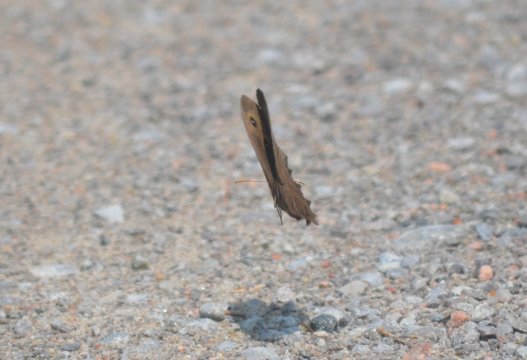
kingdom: Animalia
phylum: Arthropoda
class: Insecta
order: Lepidoptera
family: Nymphalidae
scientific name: Nymphalidae
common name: Brushfoots
